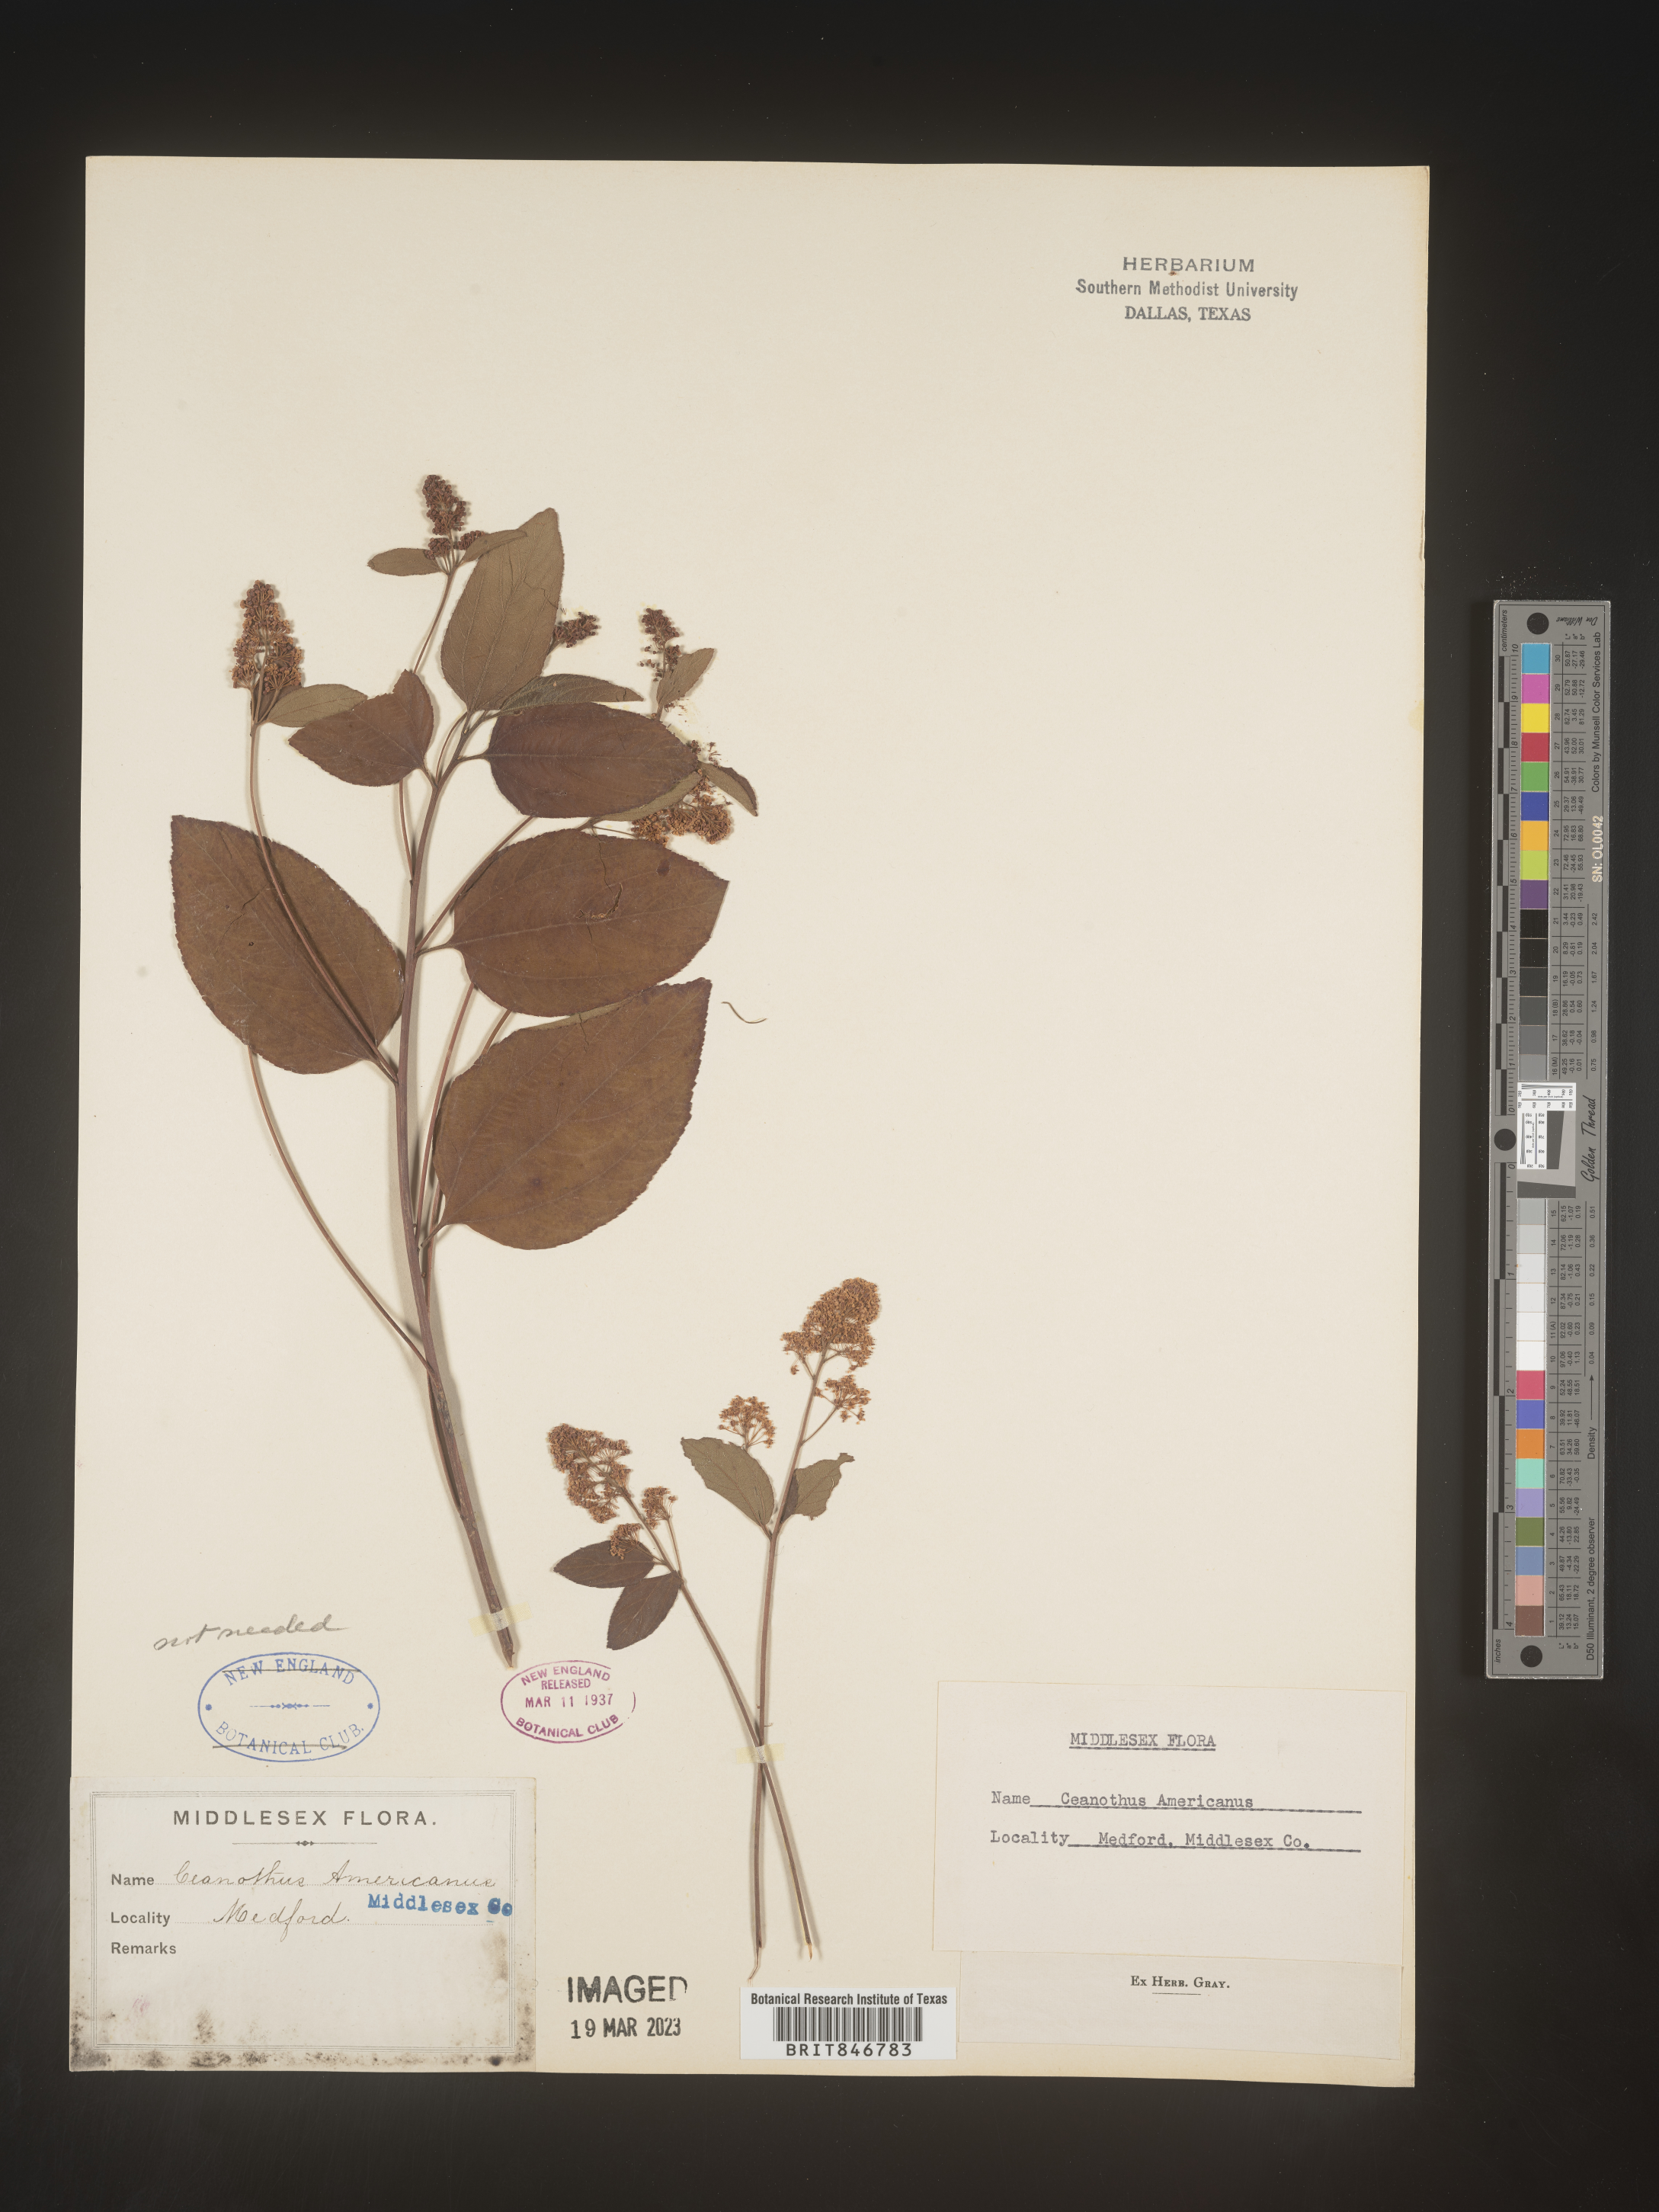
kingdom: Plantae
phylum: Tracheophyta
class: Magnoliopsida
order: Rosales
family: Rhamnaceae
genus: Ceanothus
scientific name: Ceanothus americanus
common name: Redroot
